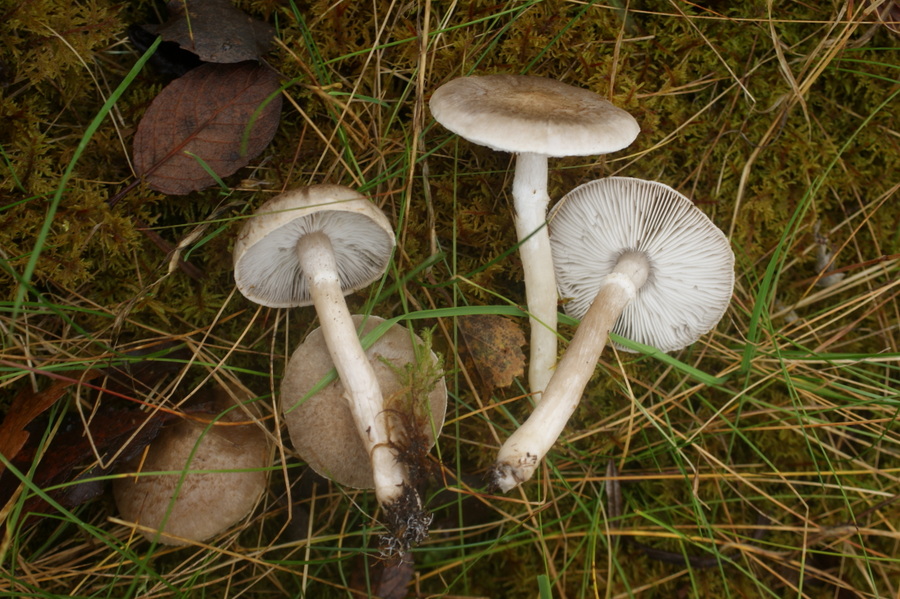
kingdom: Fungi
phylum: Basidiomycota
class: Agaricomycetes
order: Agaricales
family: Tricholomataceae
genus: Tricholoma
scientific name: Tricholoma cingulatum
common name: ring-ridderhat
